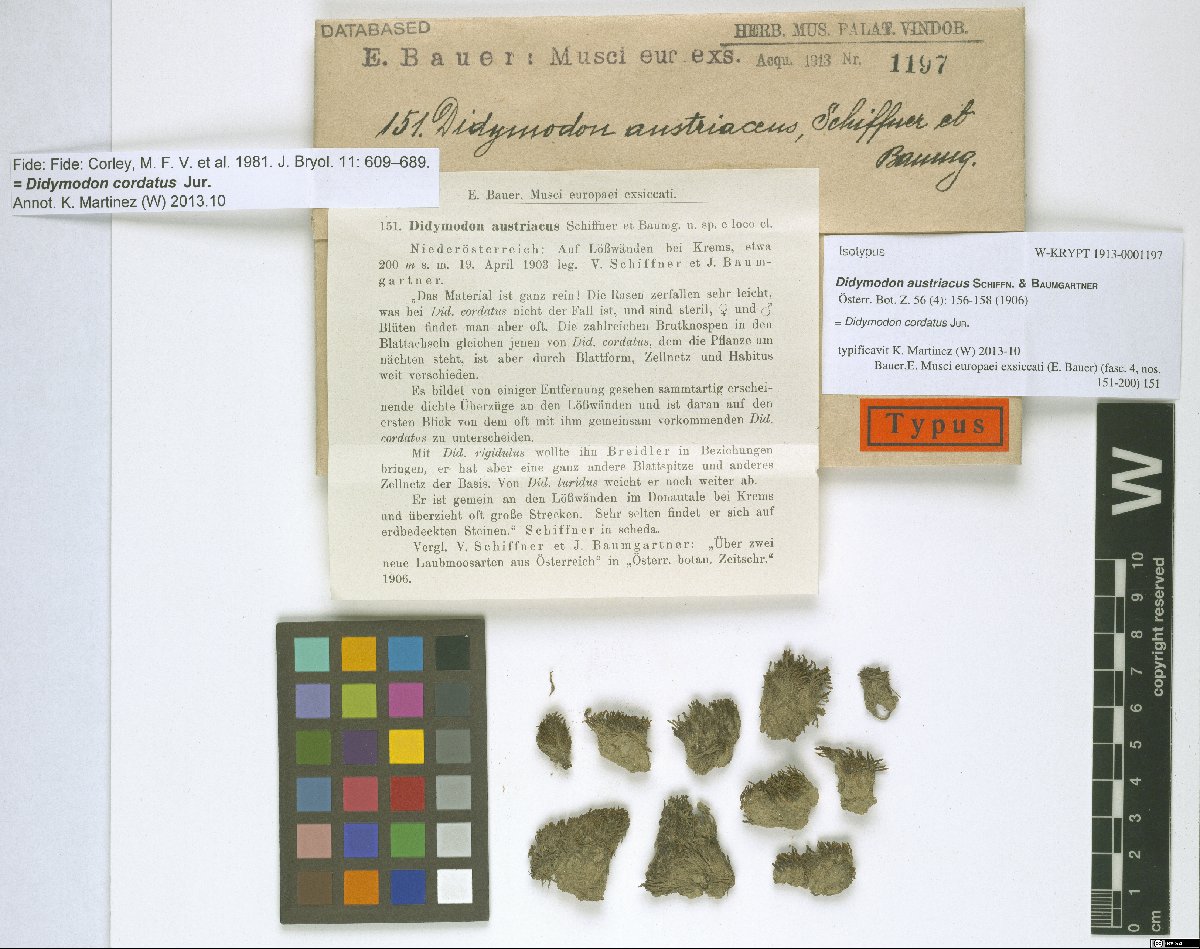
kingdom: Plantae
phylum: Bryophyta
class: Bryopsida
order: Pottiales
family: Pottiaceae
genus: Didymodon
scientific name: Didymodon cordatus
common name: Corded beard-moss
